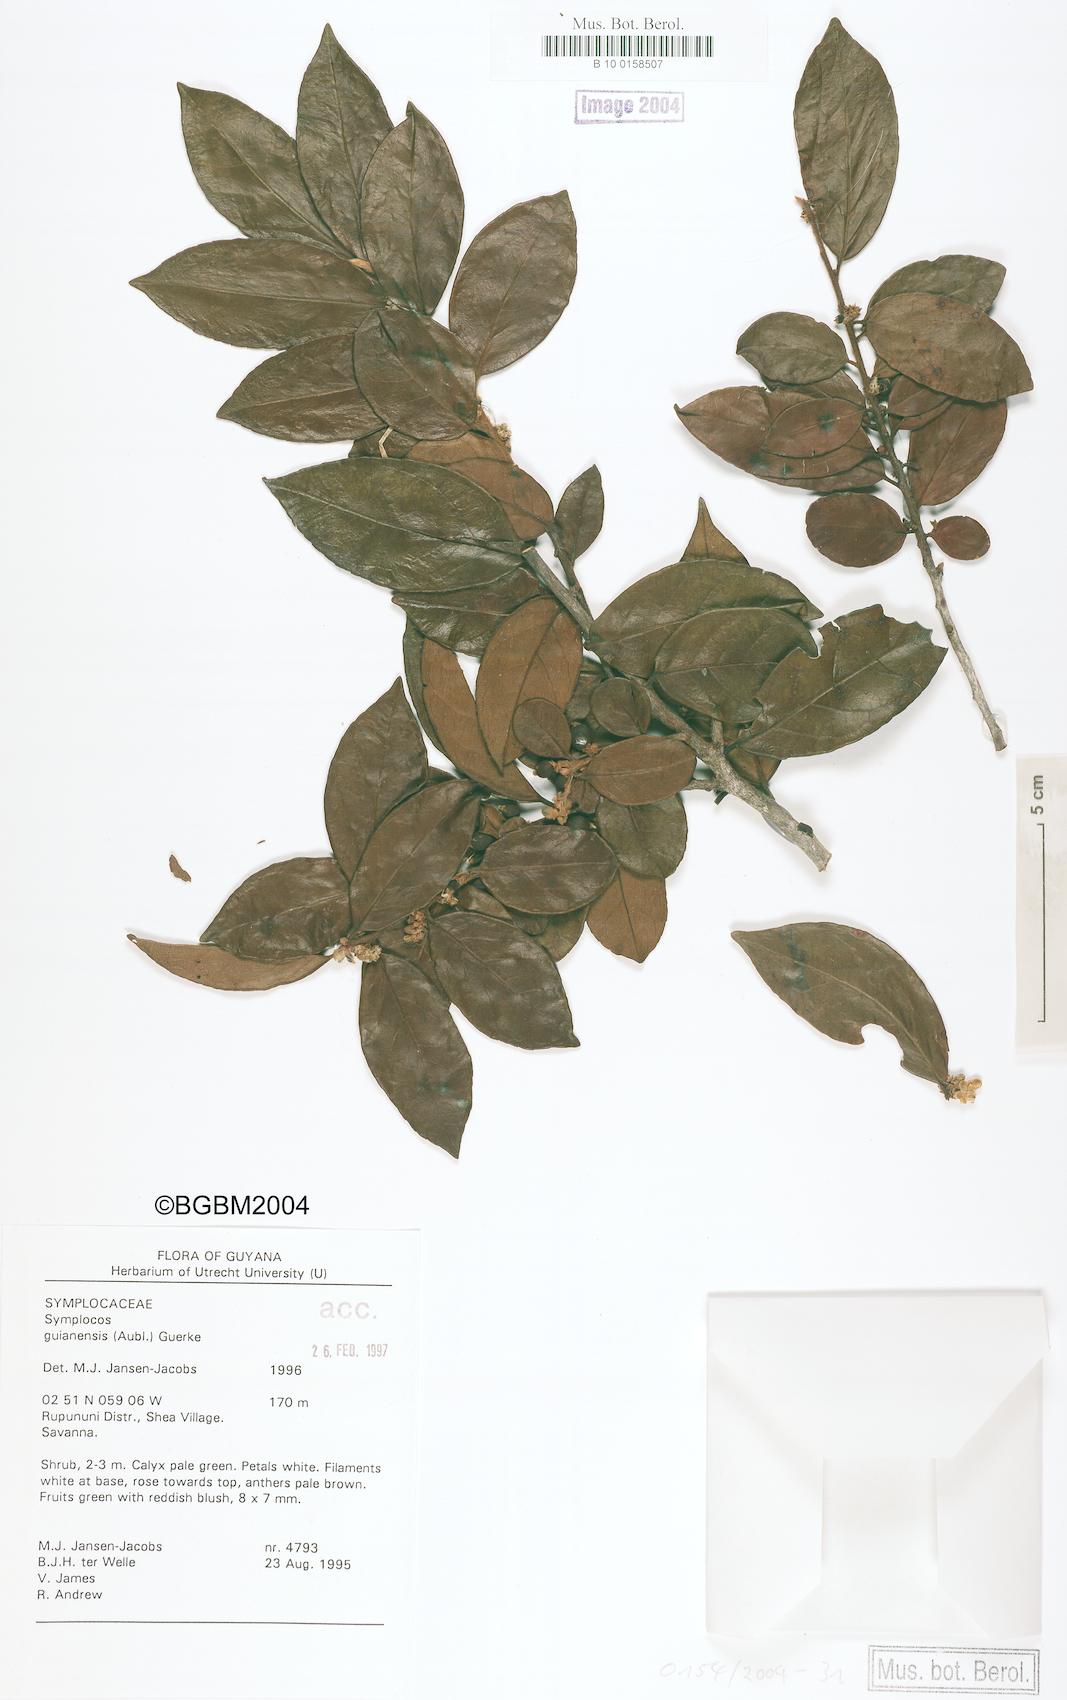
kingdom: Plantae
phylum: Tracheophyta
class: Magnoliopsida
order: Ericales
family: Symplocaceae
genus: Symplocos
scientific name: Symplocos guianensis
